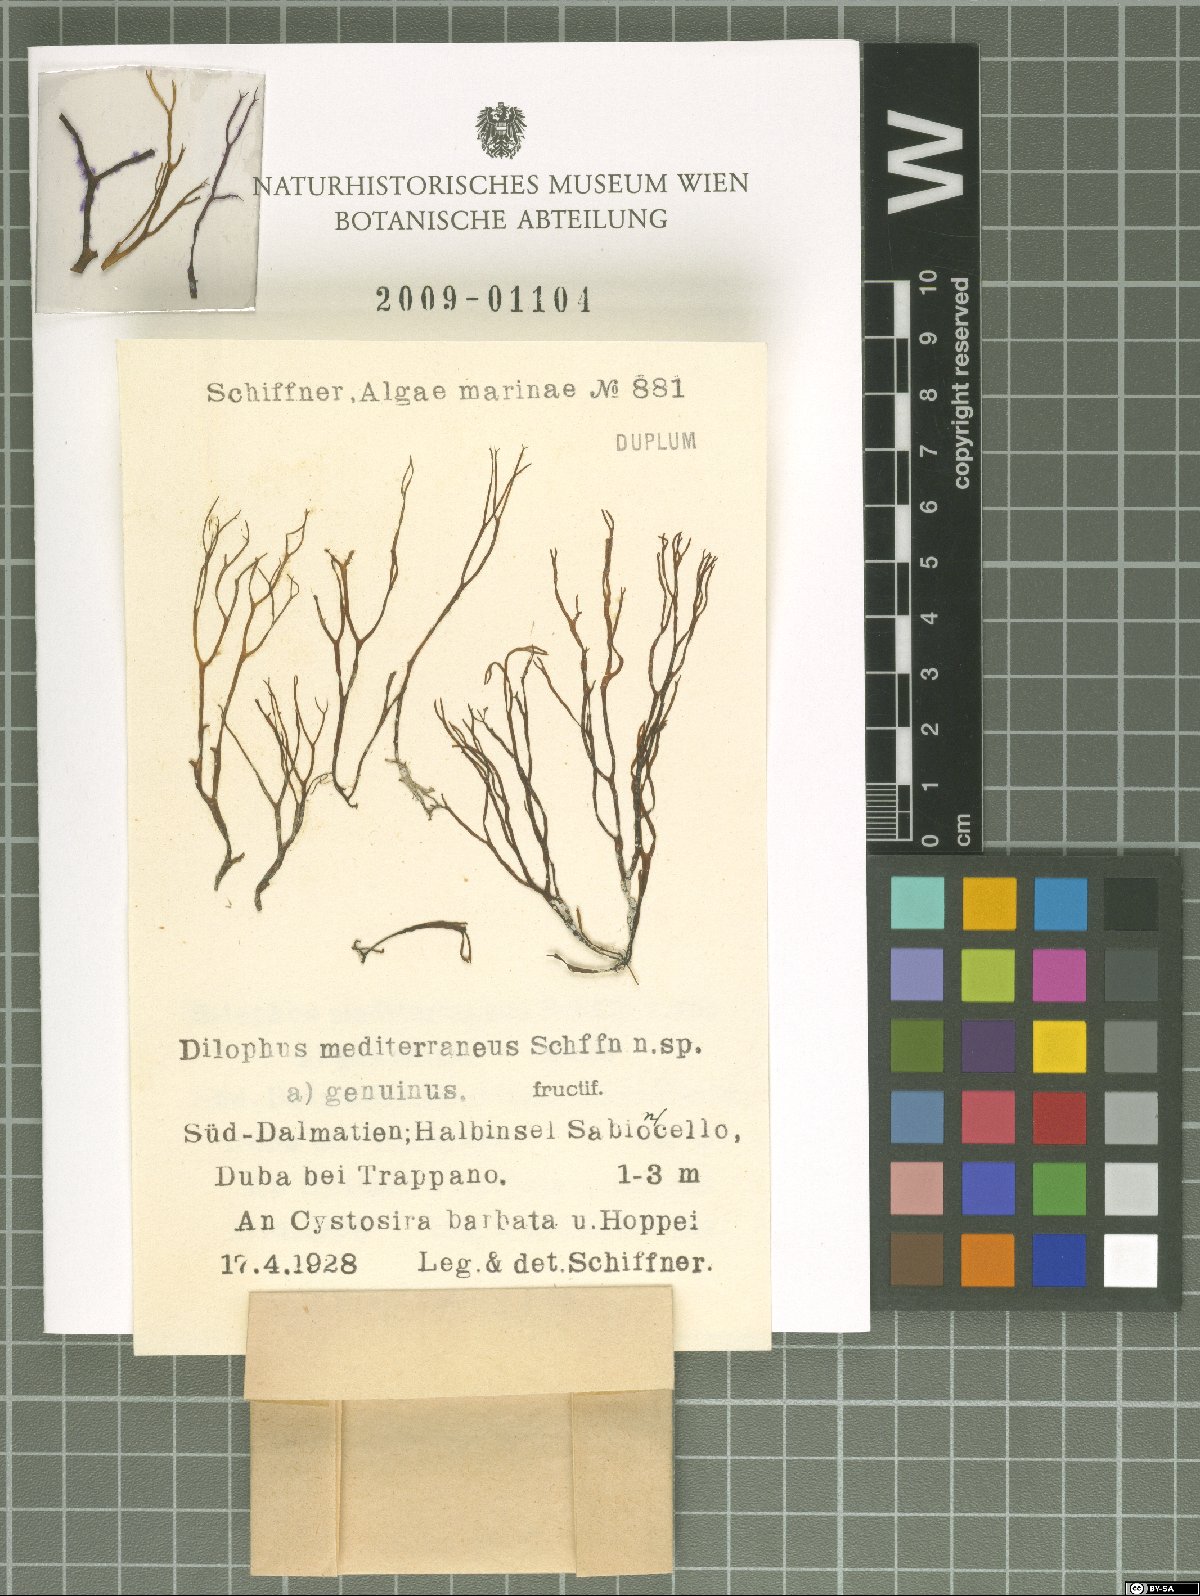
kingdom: Chromista
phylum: Ochrophyta
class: Phaeophyceae
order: Dictyotales
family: Dictyotaceae
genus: Dictyota
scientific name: Dictyota
